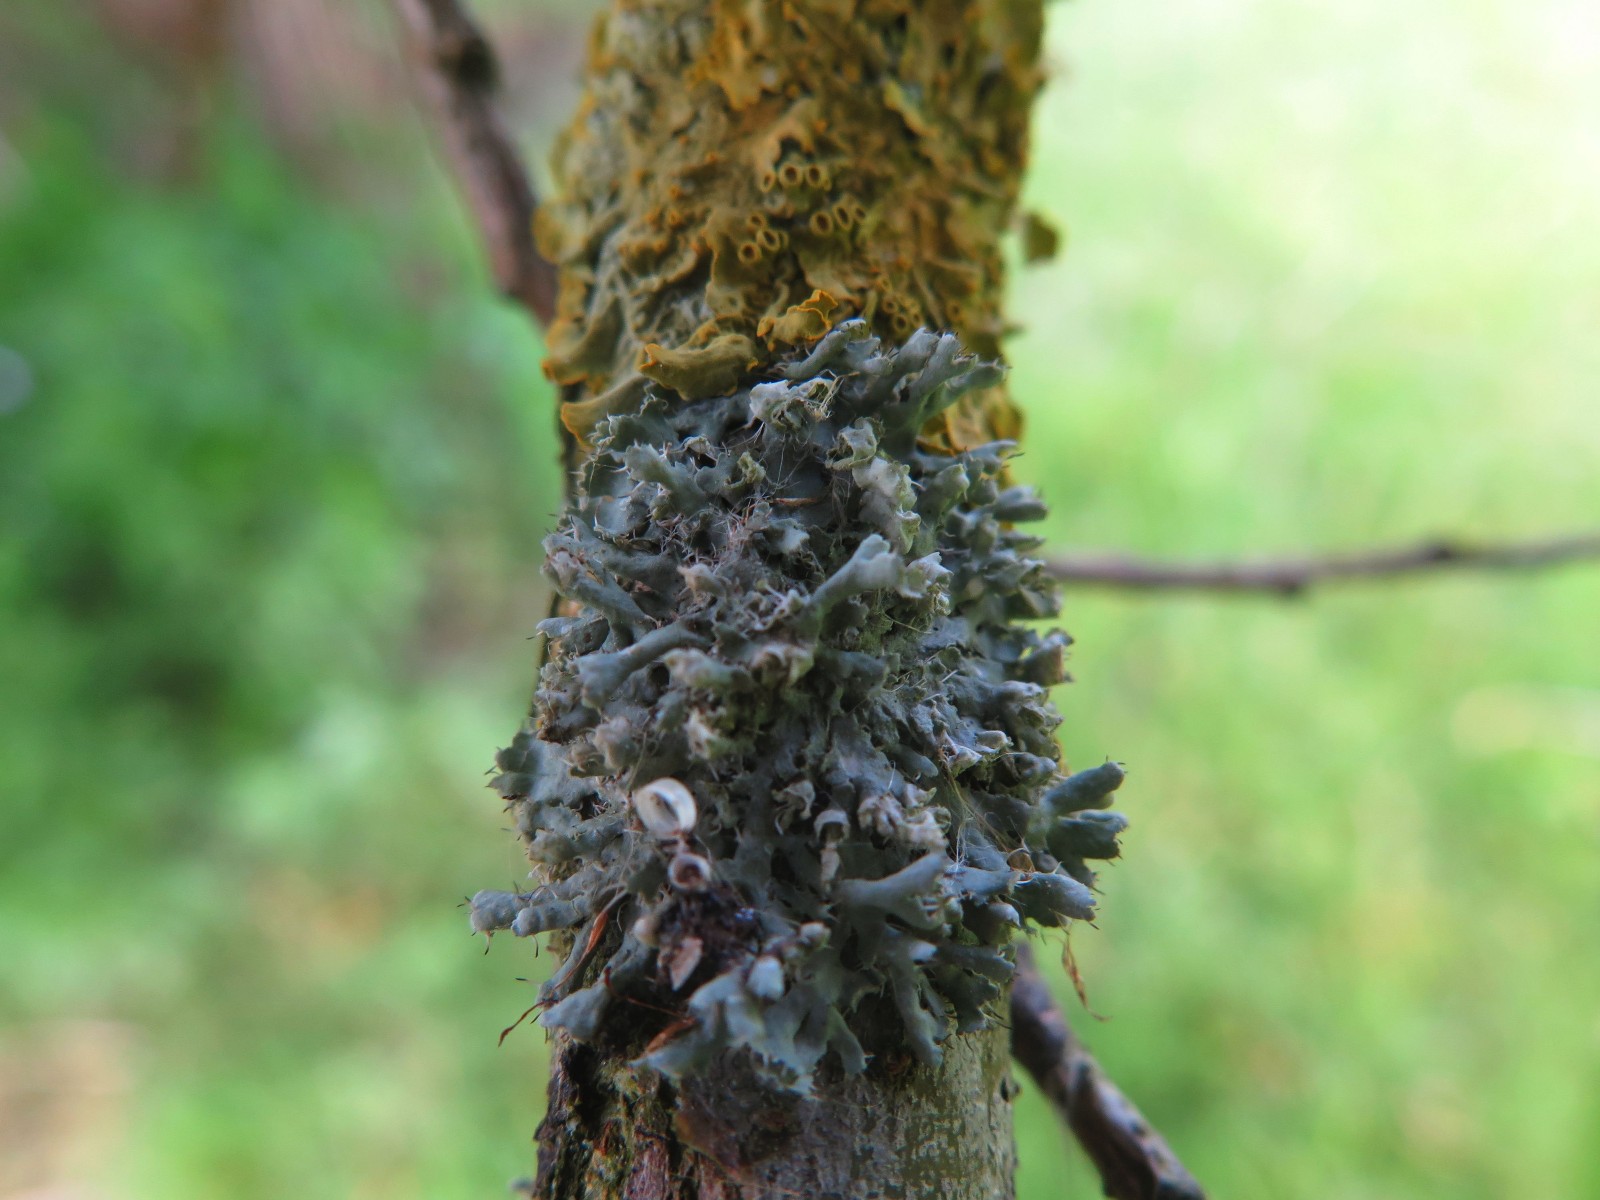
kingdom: Fungi
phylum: Ascomycota
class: Lecanoromycetes
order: Caliciales
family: Physciaceae
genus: Physcia
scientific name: Physcia adscendens
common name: hætte-rosetlav
